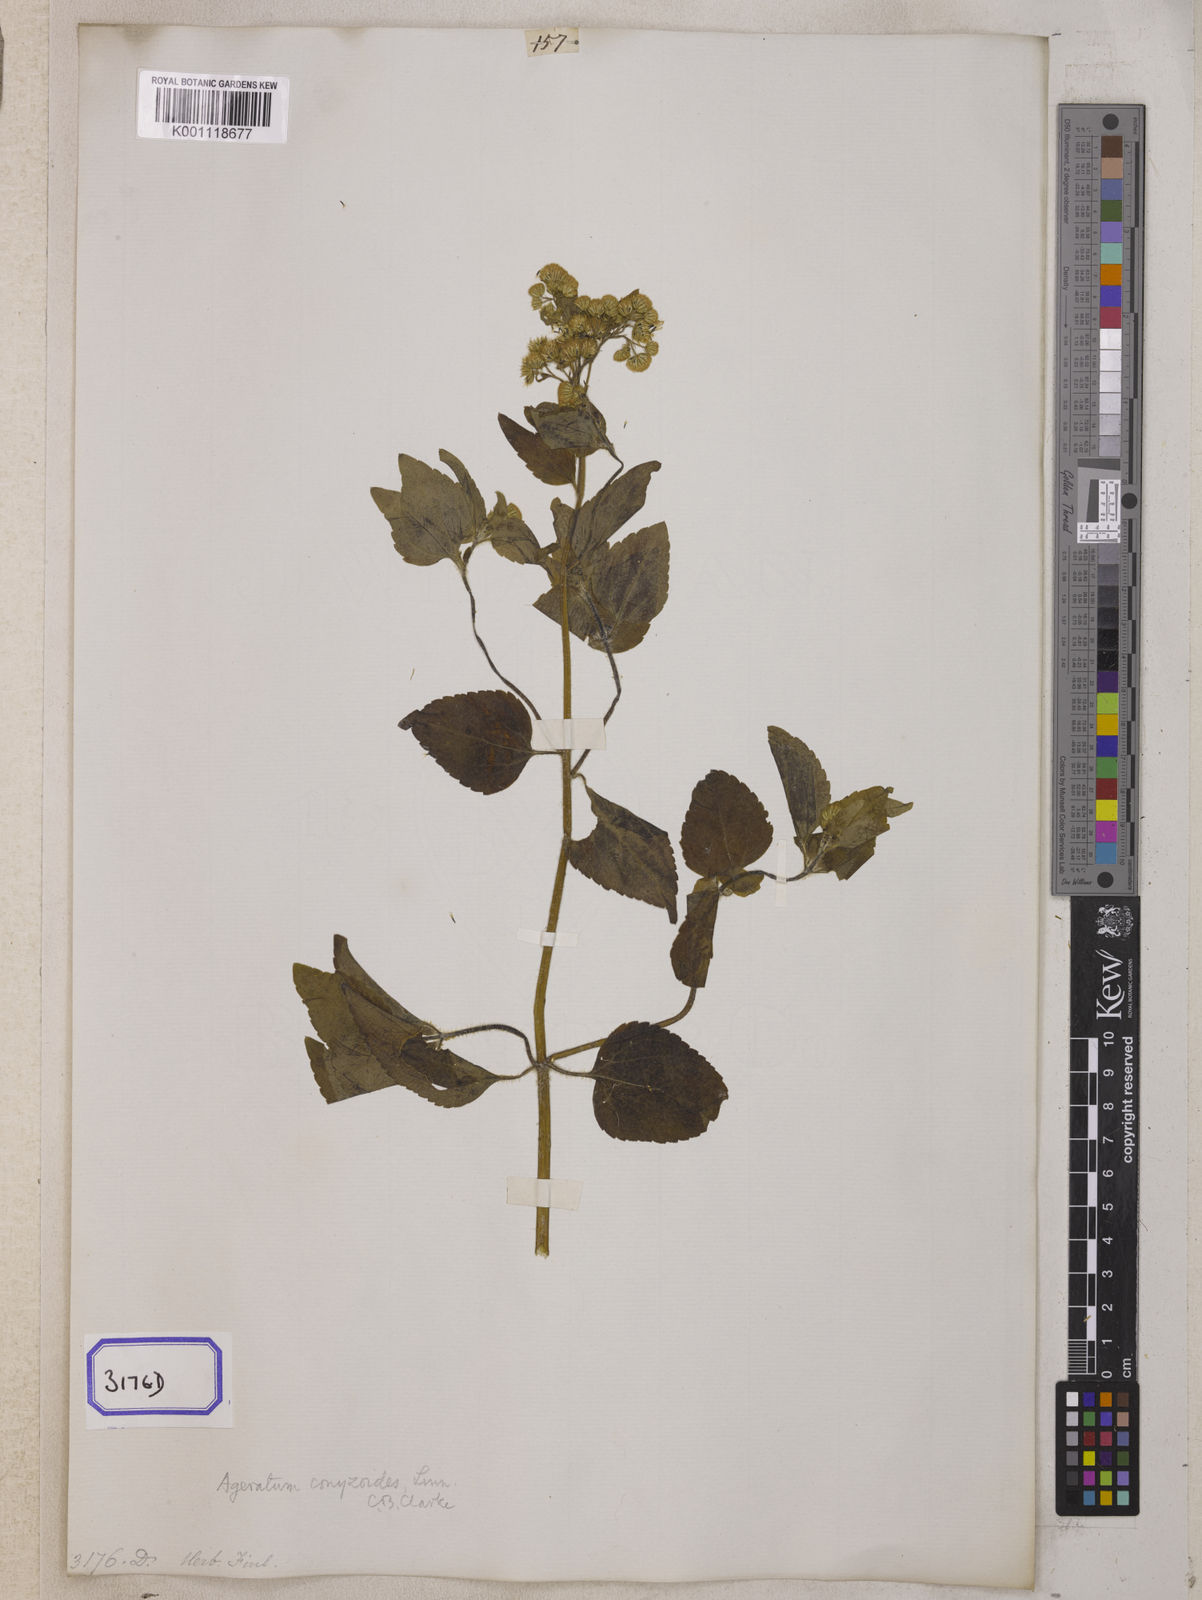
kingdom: Plantae
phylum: Tracheophyta
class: Magnoliopsida
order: Asterales
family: Asteraceae
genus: Ageratum
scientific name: Ageratum conyzoides
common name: Tropical whiteweed
